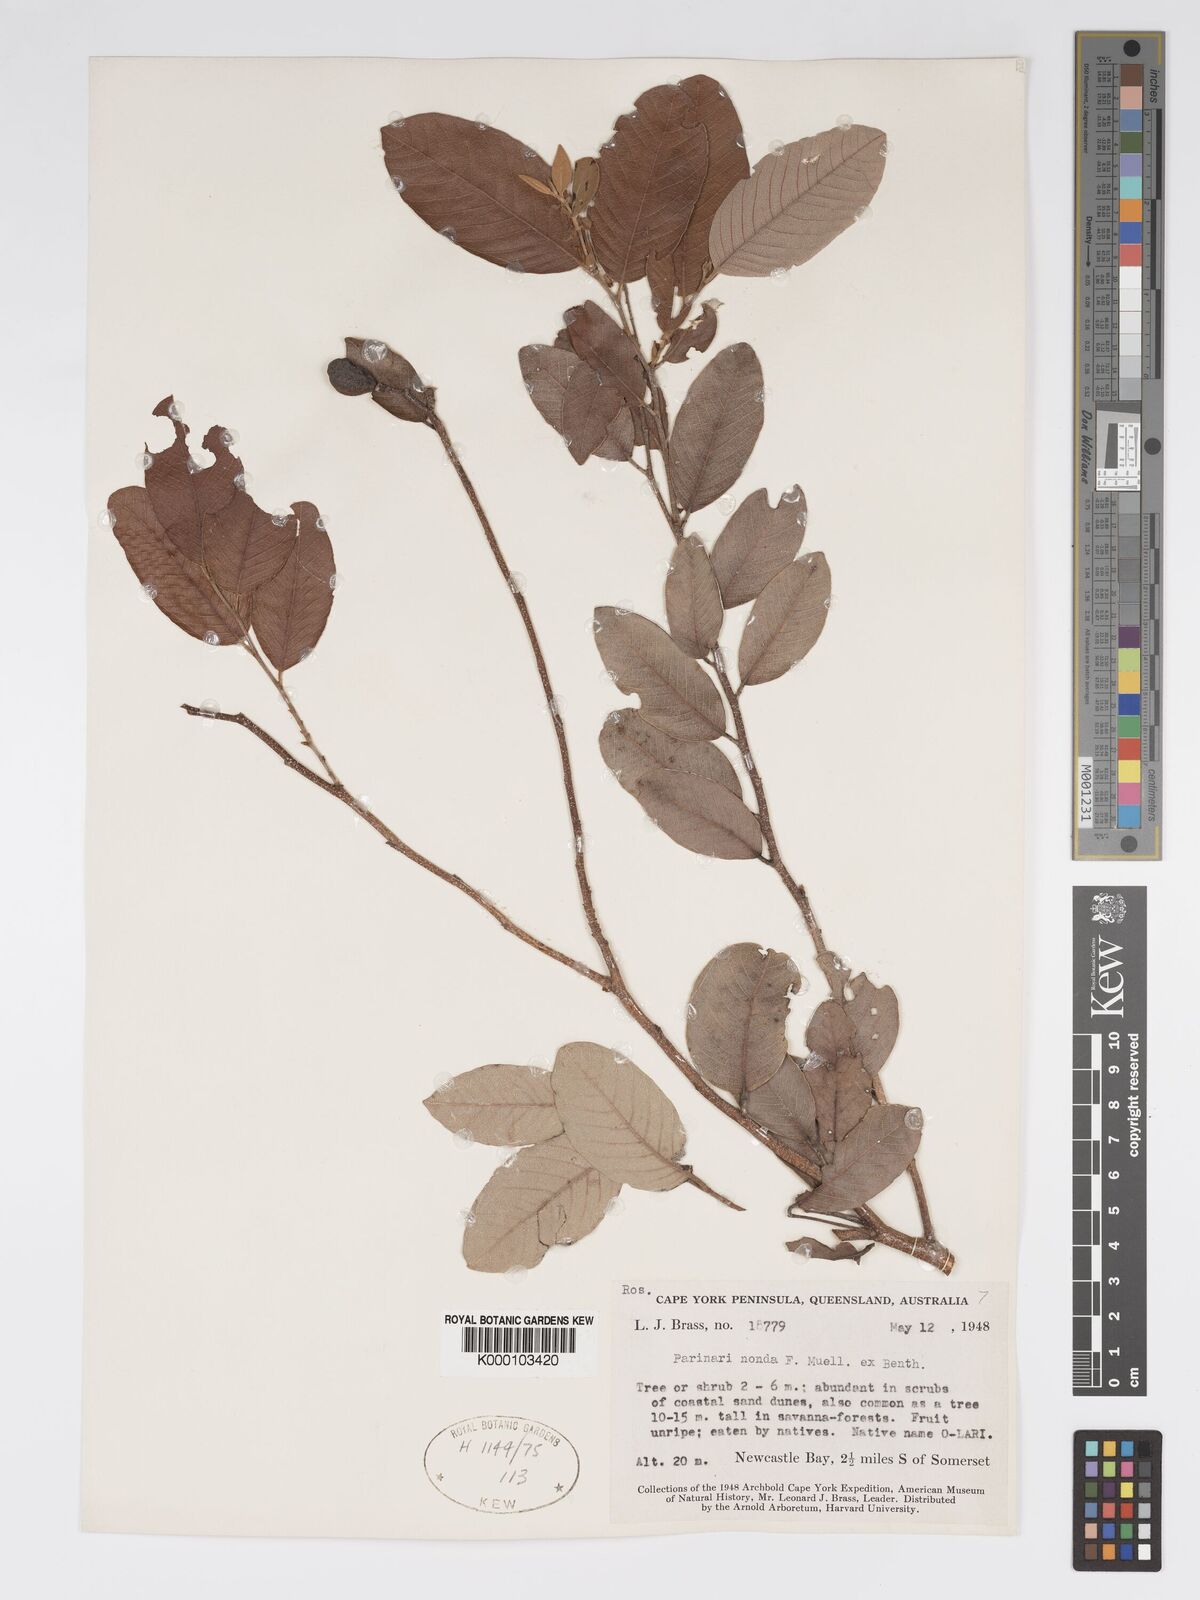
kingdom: Plantae
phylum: Tracheophyta
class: Magnoliopsida
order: Malpighiales
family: Chrysobalanaceae
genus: Parinari
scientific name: Parinari nonda
